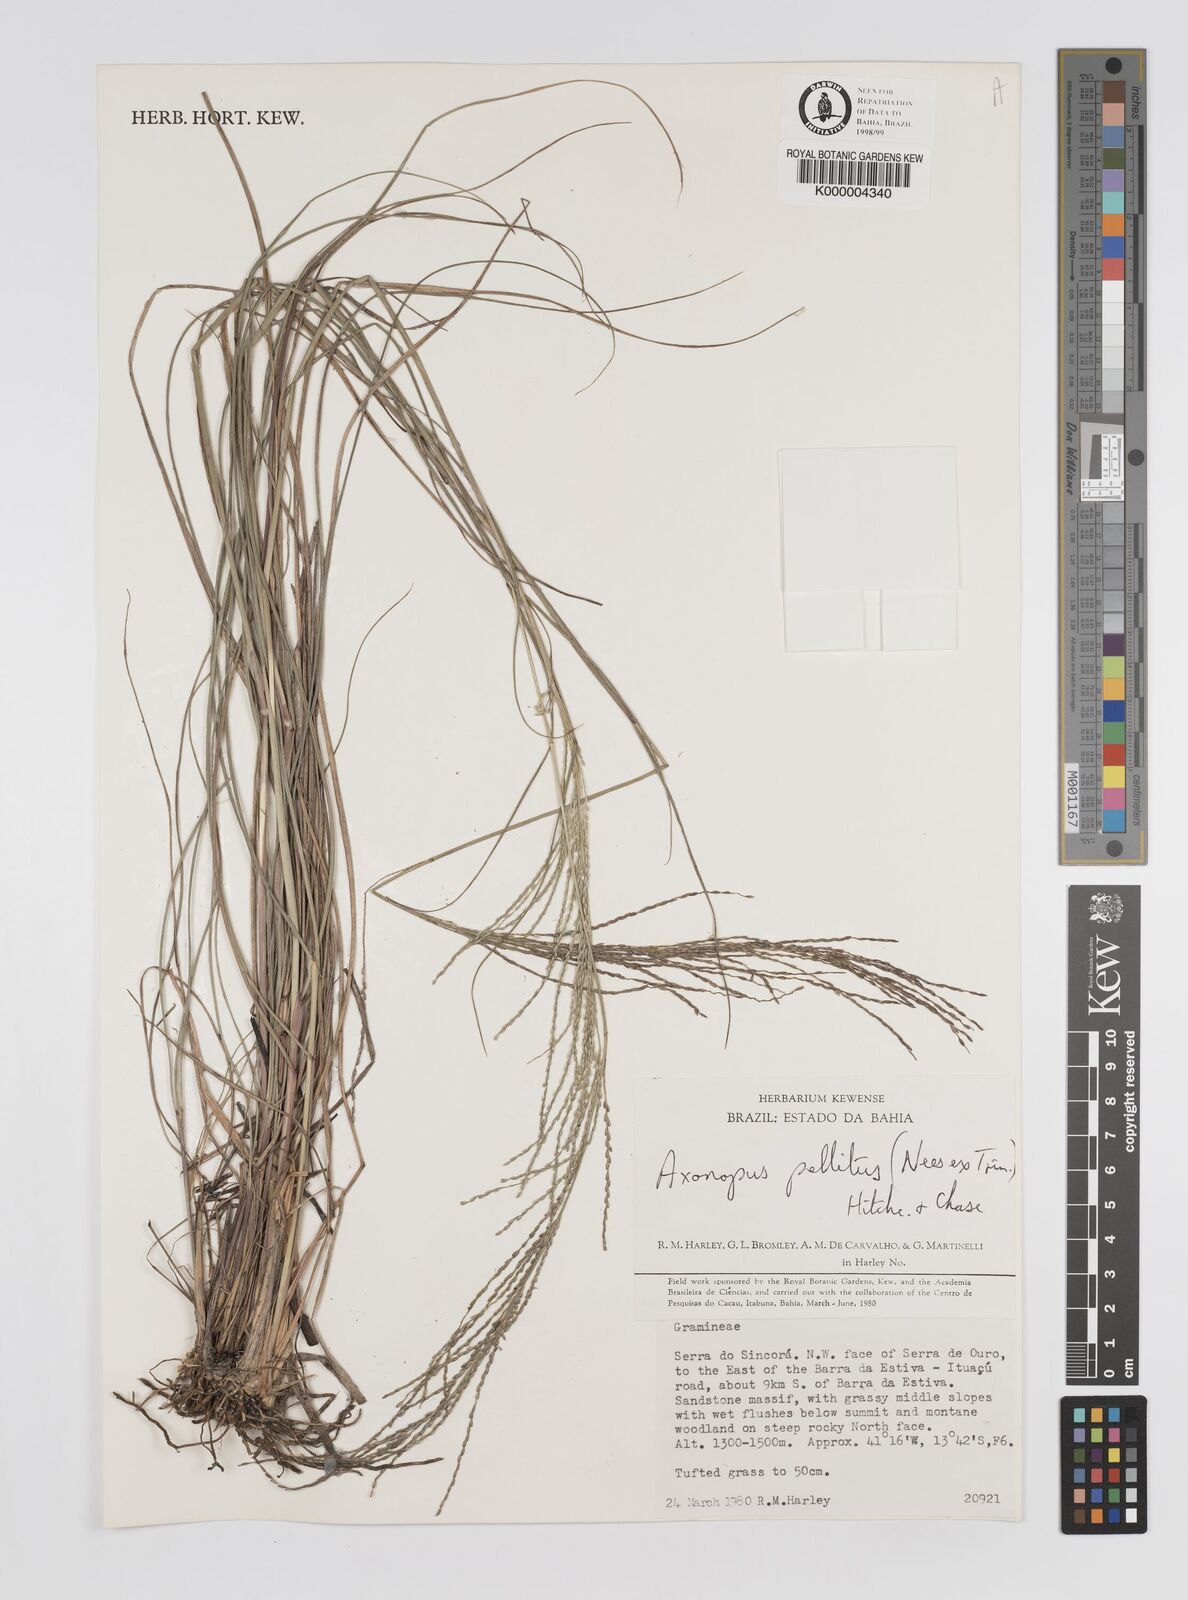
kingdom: Plantae
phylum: Tracheophyta
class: Liliopsida
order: Poales
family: Poaceae
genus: Axonopus
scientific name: Axonopus
